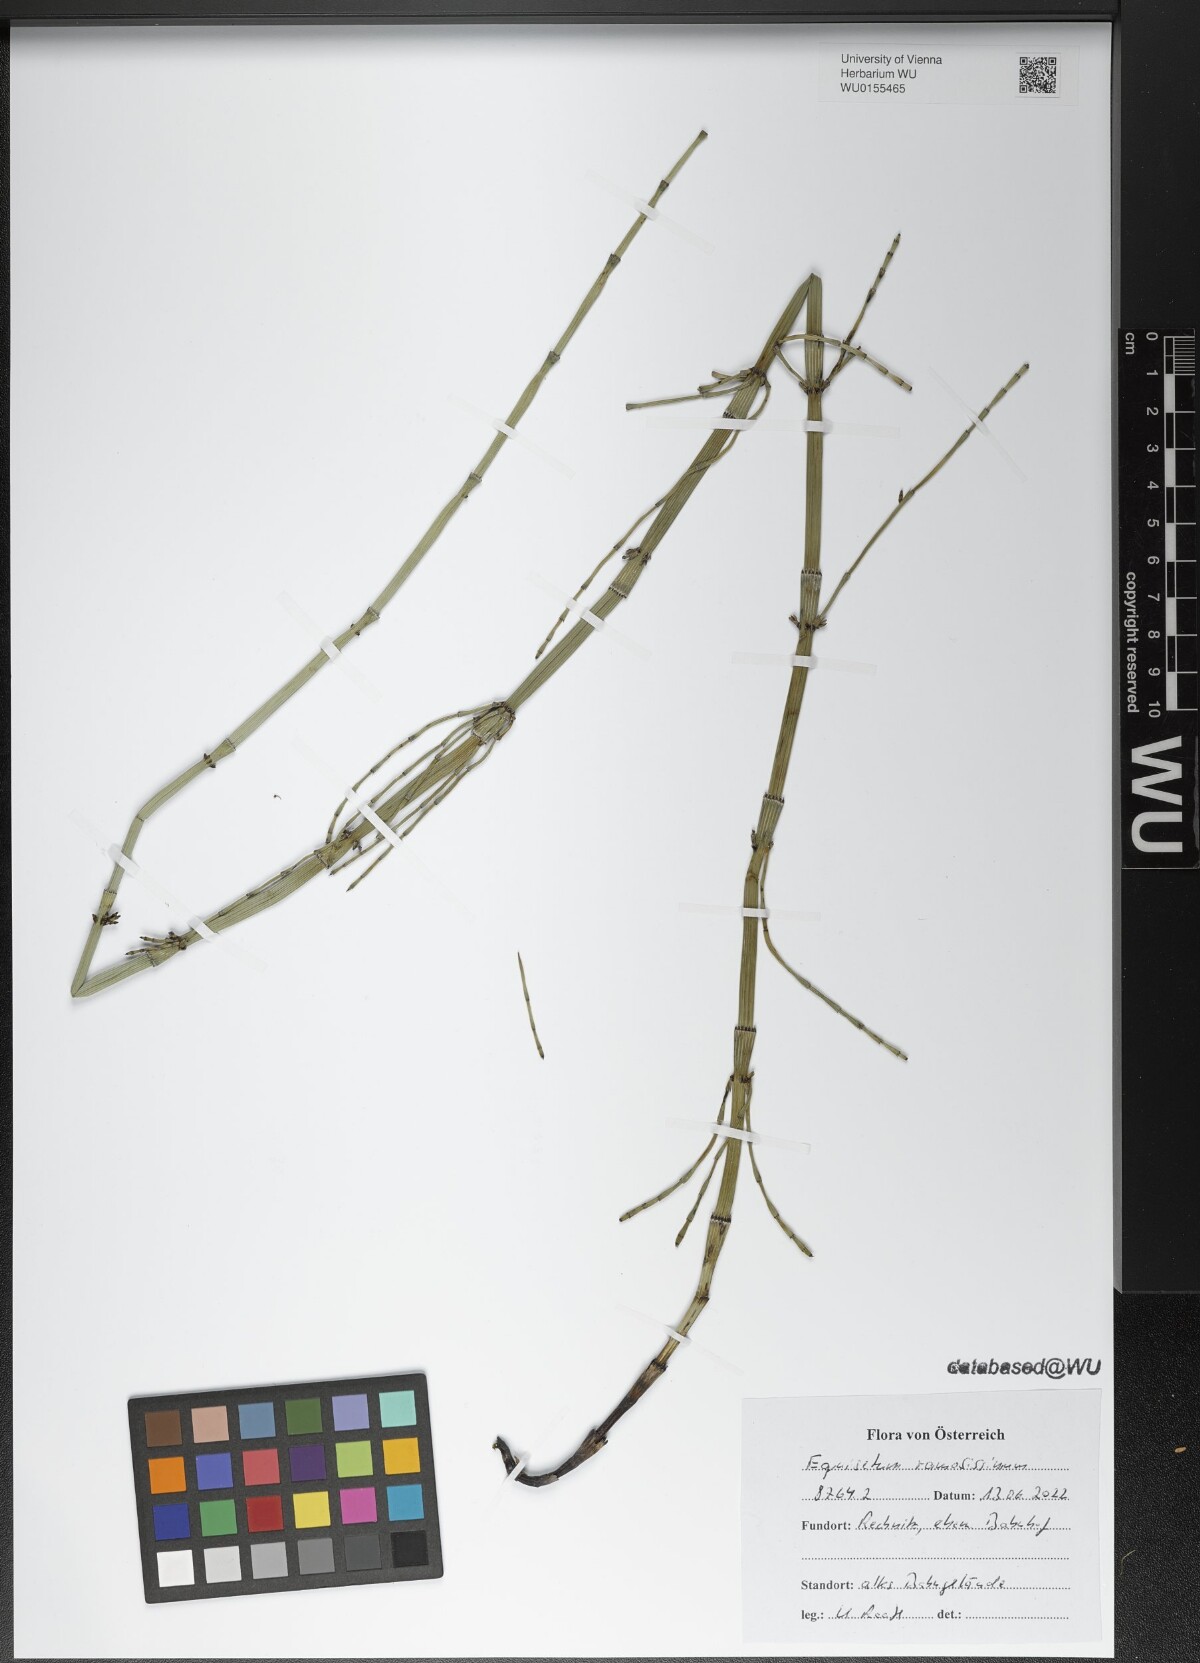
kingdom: Plantae
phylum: Tracheophyta
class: Polypodiopsida
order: Equisetales
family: Equisetaceae
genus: Equisetum
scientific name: Equisetum ramosissimum
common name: Branched horsetail
